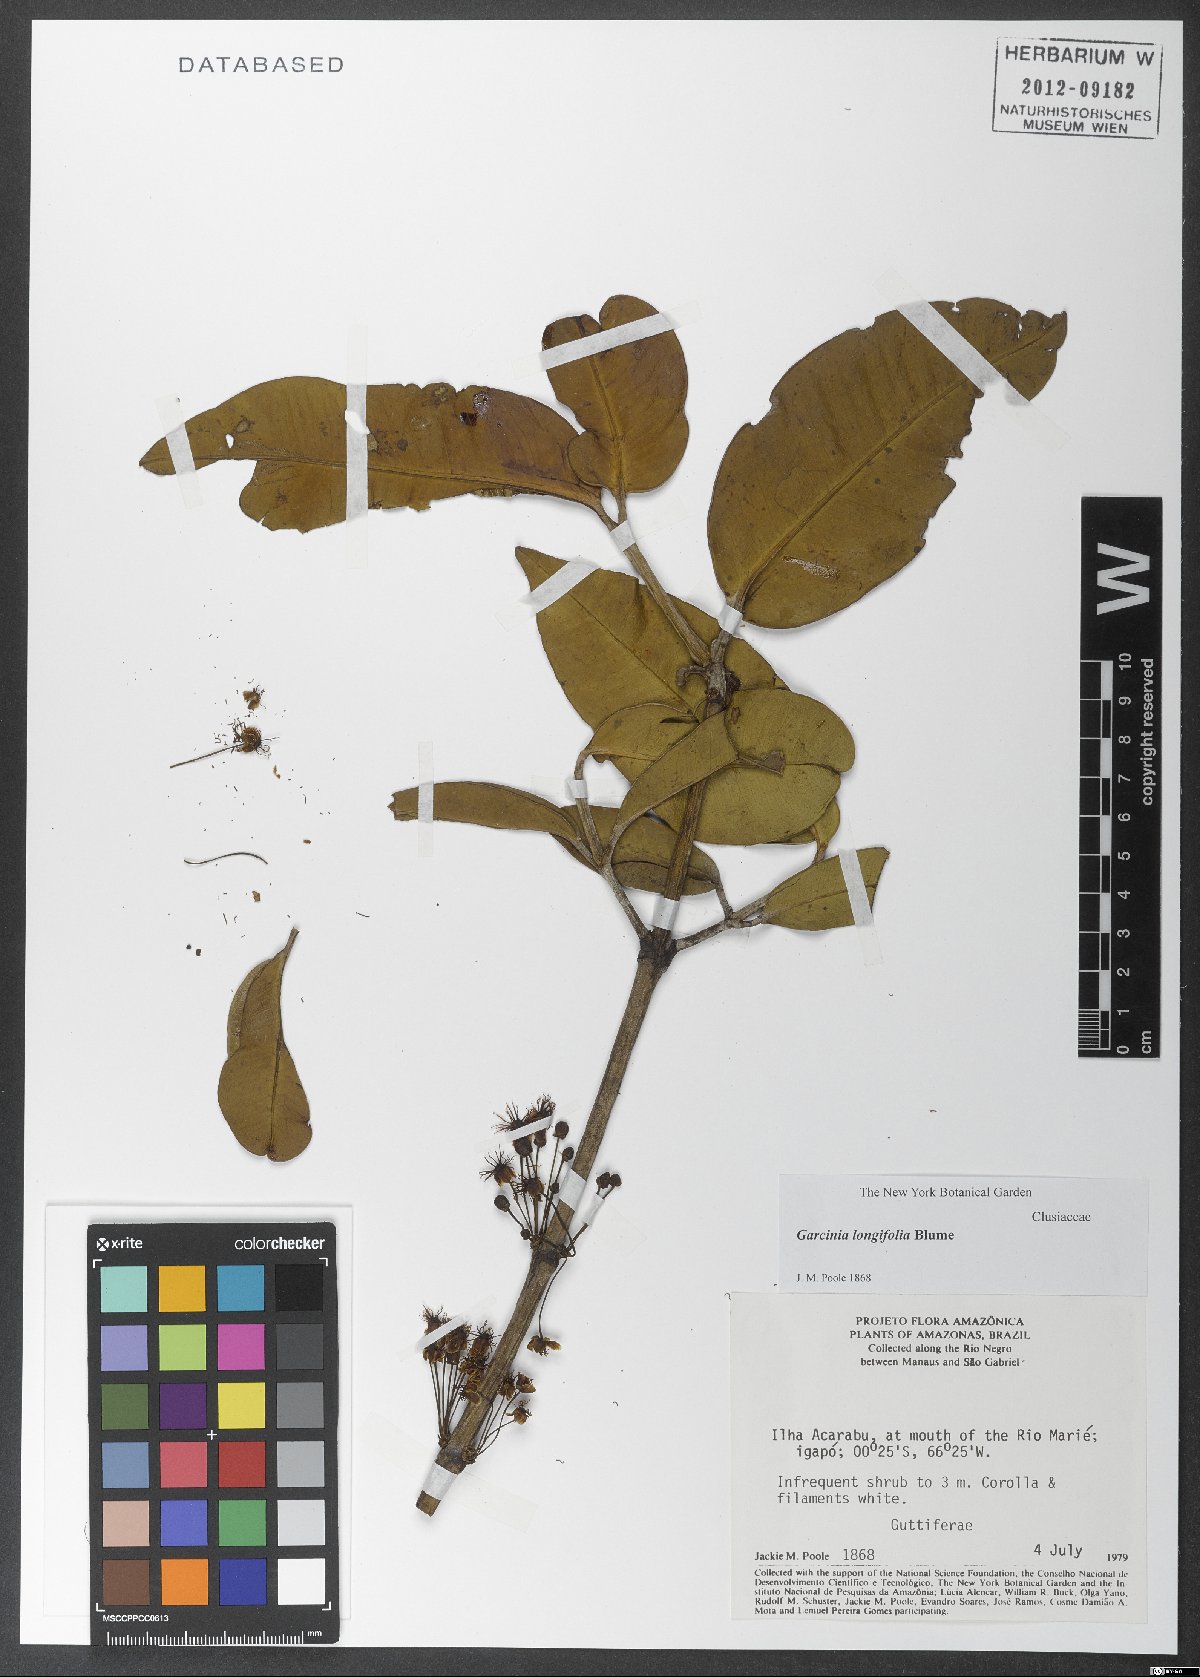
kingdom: Plantae
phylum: Tracheophyta
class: Magnoliopsida
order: Malpighiales
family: Clusiaceae
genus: Garcinia
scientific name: Garcinia longifolia
